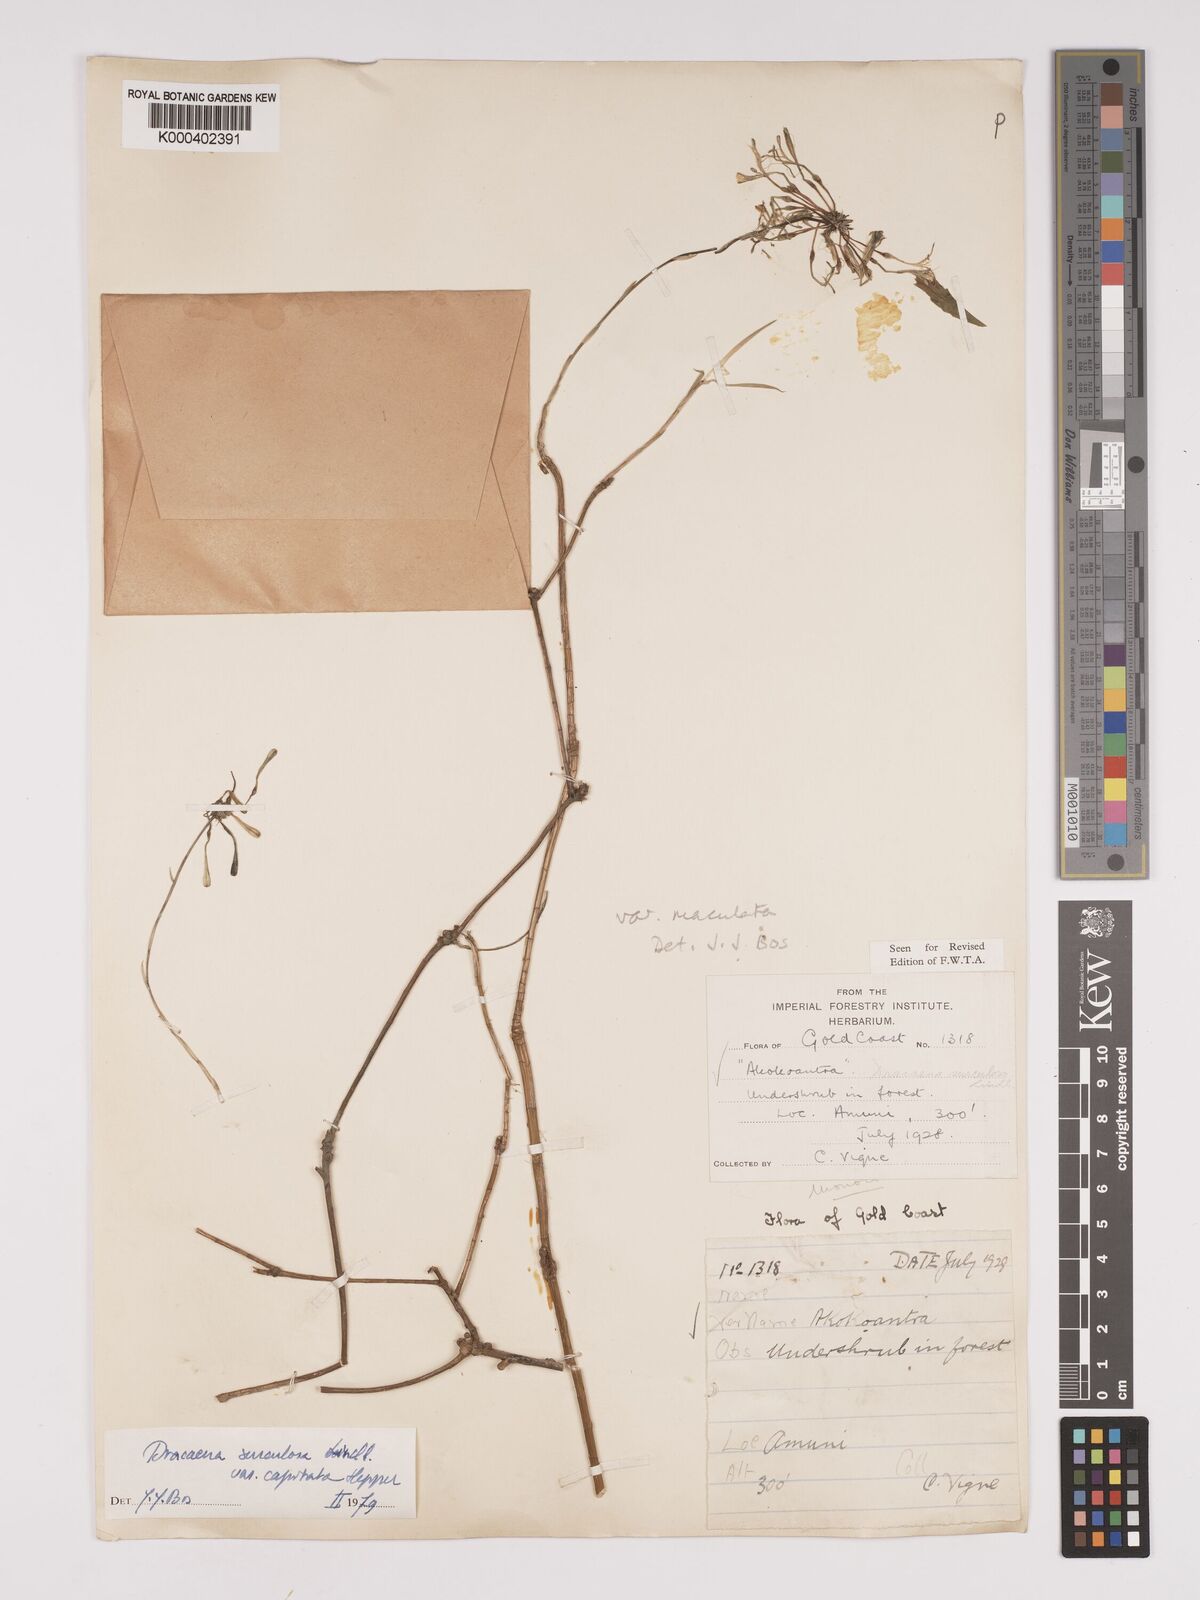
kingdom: Plantae
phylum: Tracheophyta
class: Liliopsida
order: Asparagales
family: Asparagaceae
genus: Dracaena
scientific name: Dracaena surculosa
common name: Spotted dracaena
